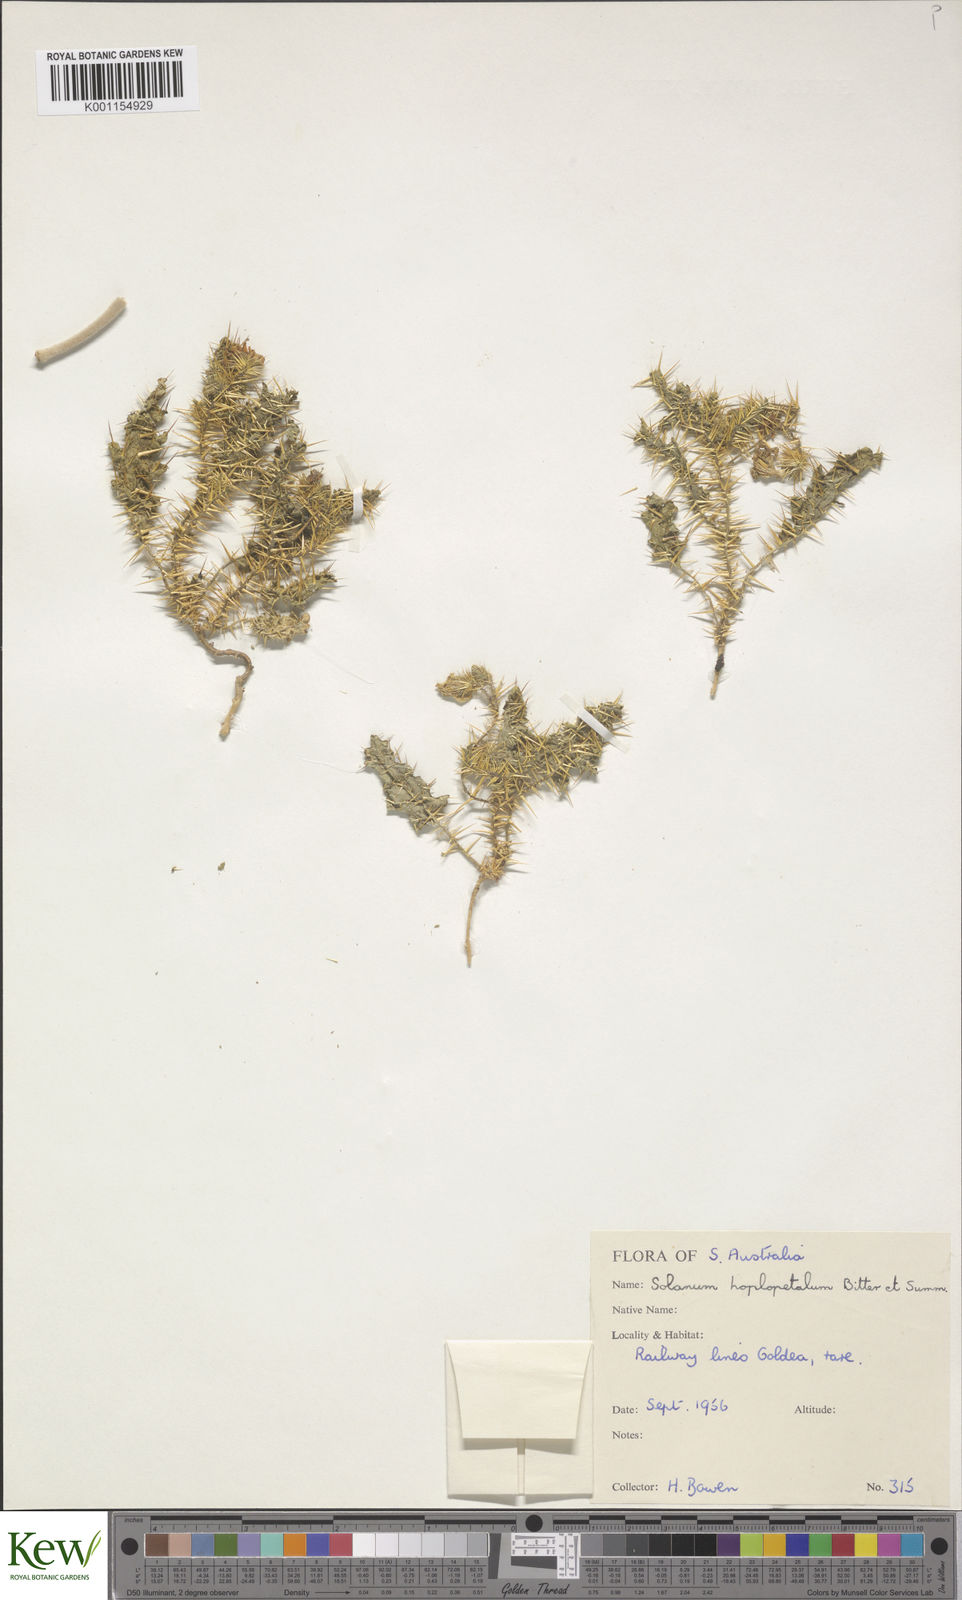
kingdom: Plantae
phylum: Tracheophyta
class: Magnoliopsida
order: Solanales
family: Solanaceae
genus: Solanum
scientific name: Solanum hoplopetalum
